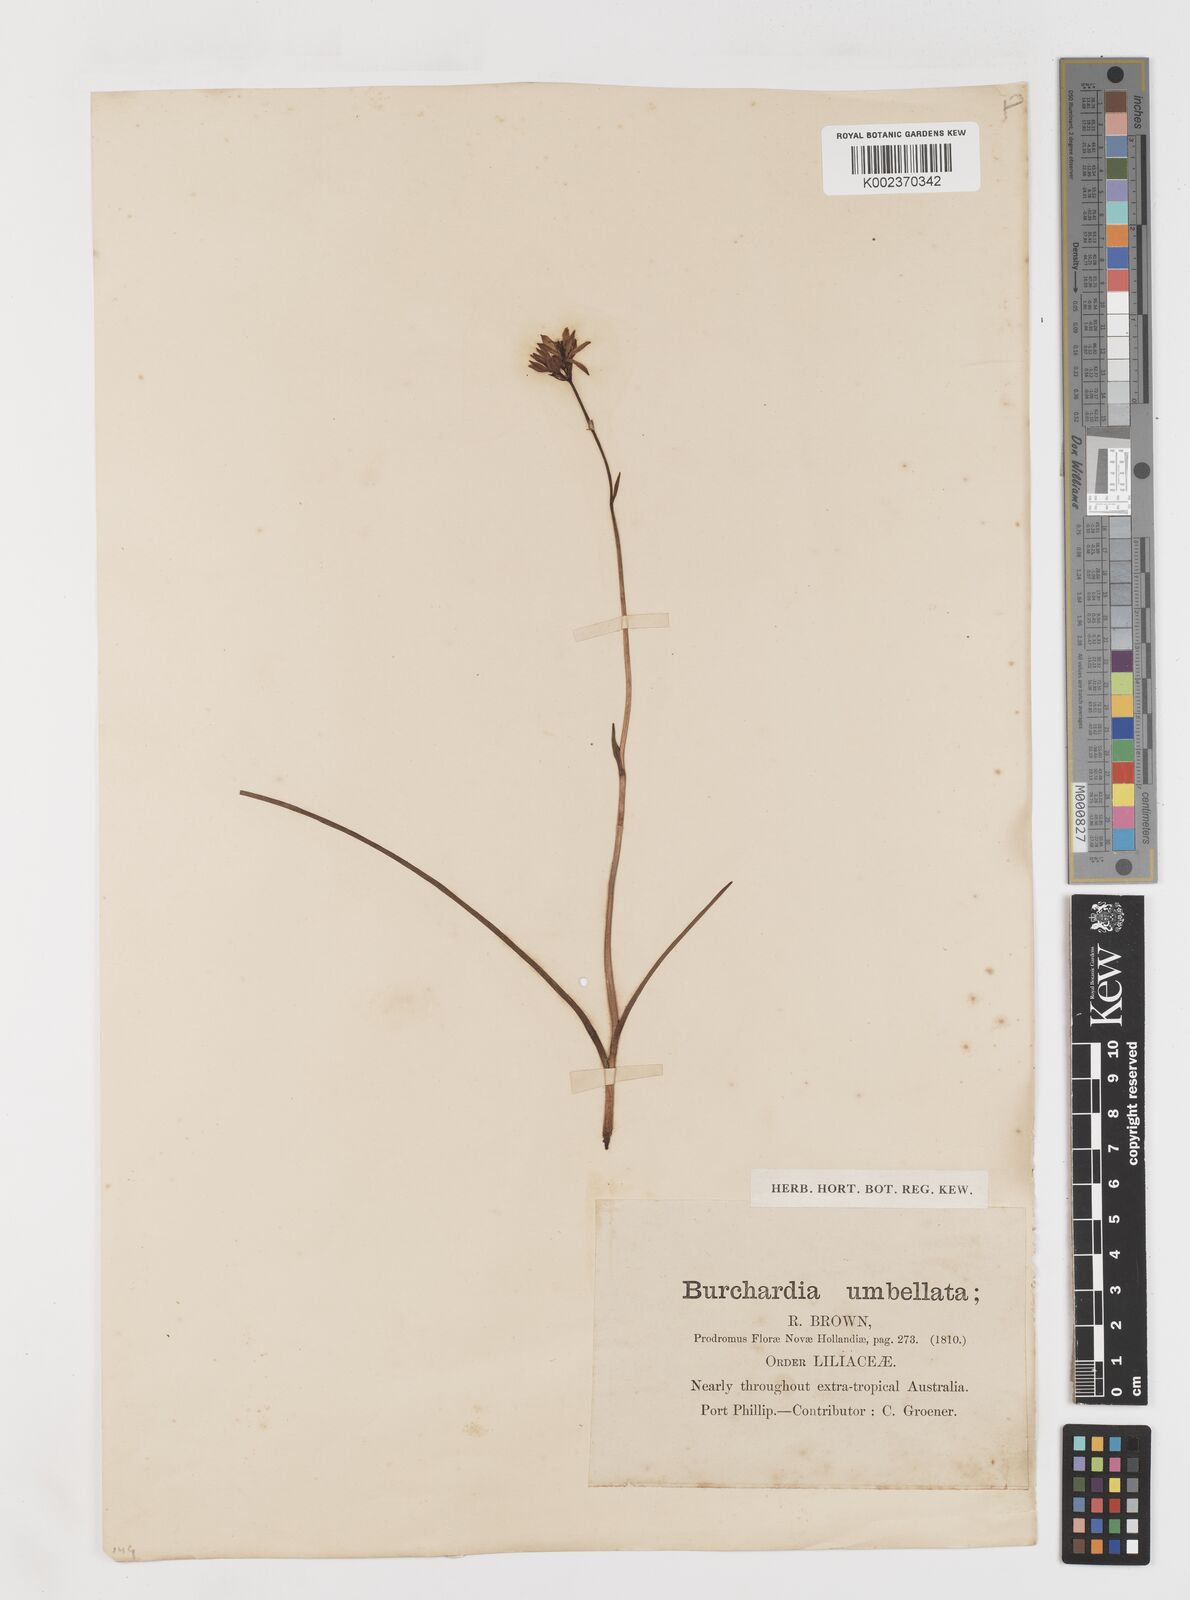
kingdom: Plantae
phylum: Tracheophyta
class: Liliopsida
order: Liliales
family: Colchicaceae
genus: Burchardia
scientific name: Burchardia umbellata
